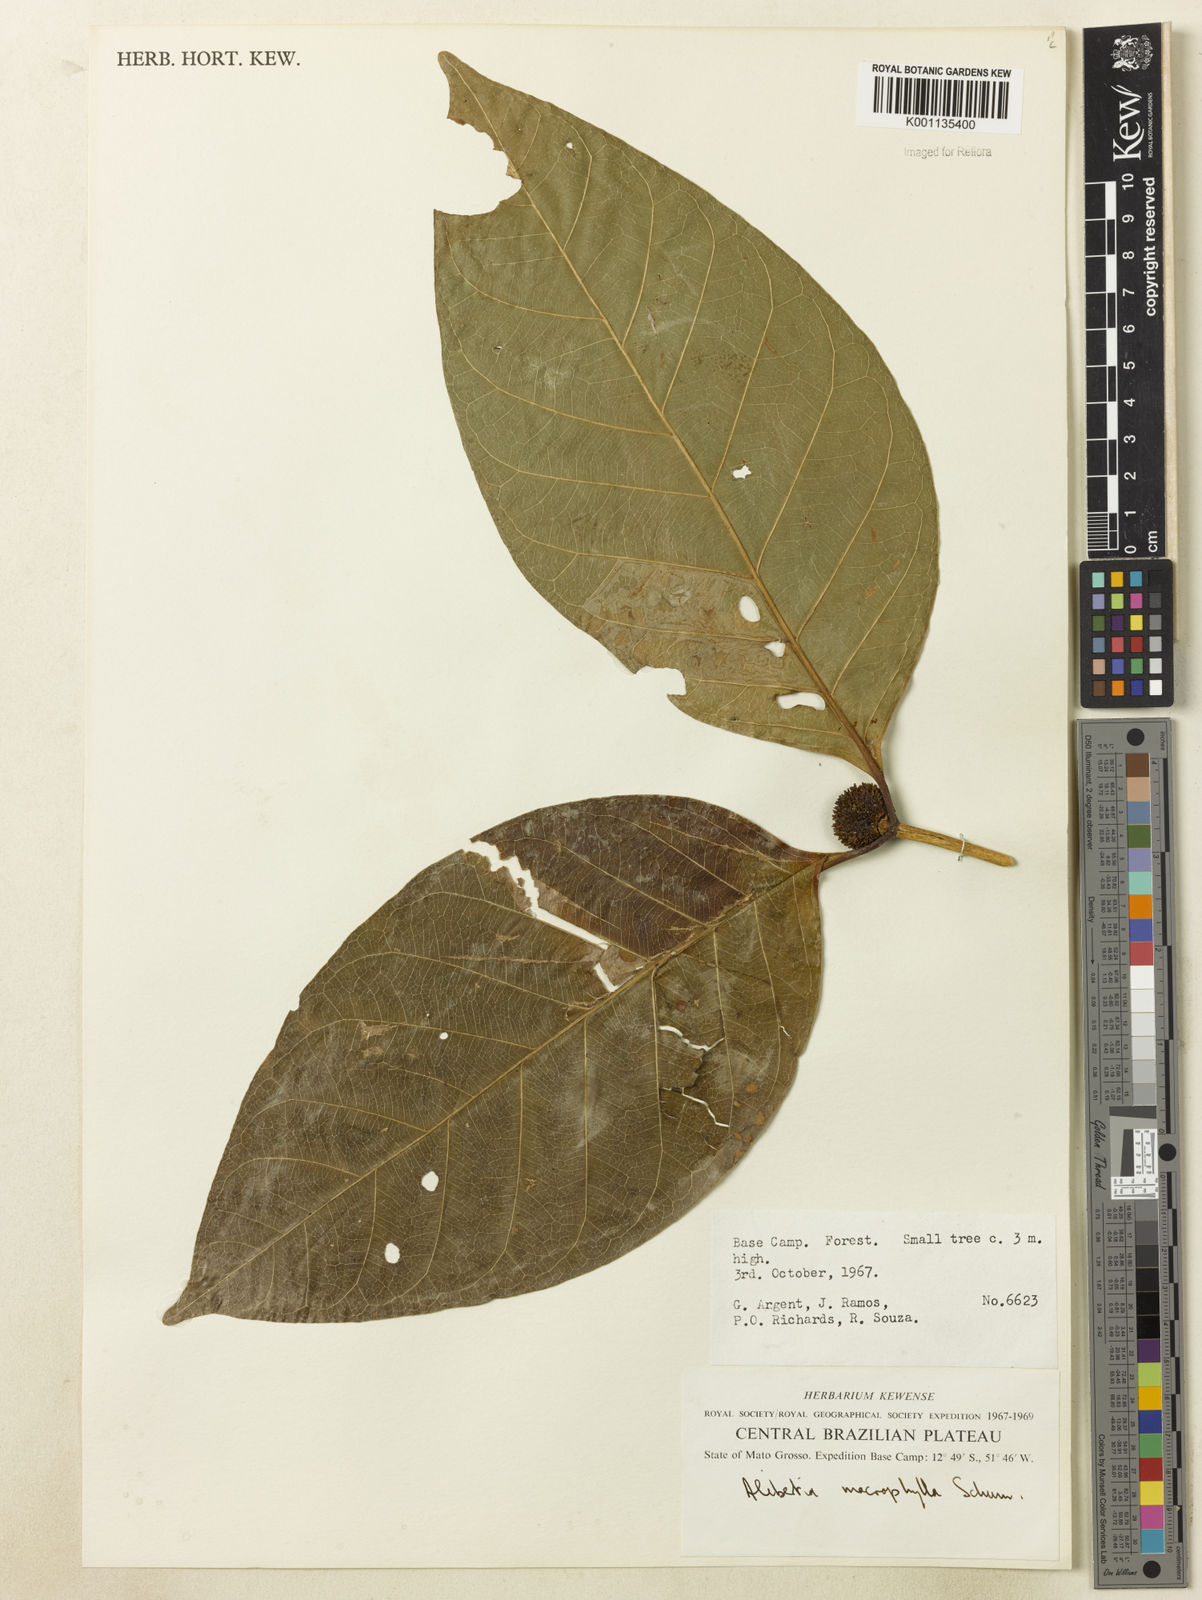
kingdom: Plantae
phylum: Tracheophyta
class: Magnoliopsida
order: Gentianales
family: Rubiaceae
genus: Cordiera
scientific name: Cordiera macrophylla
